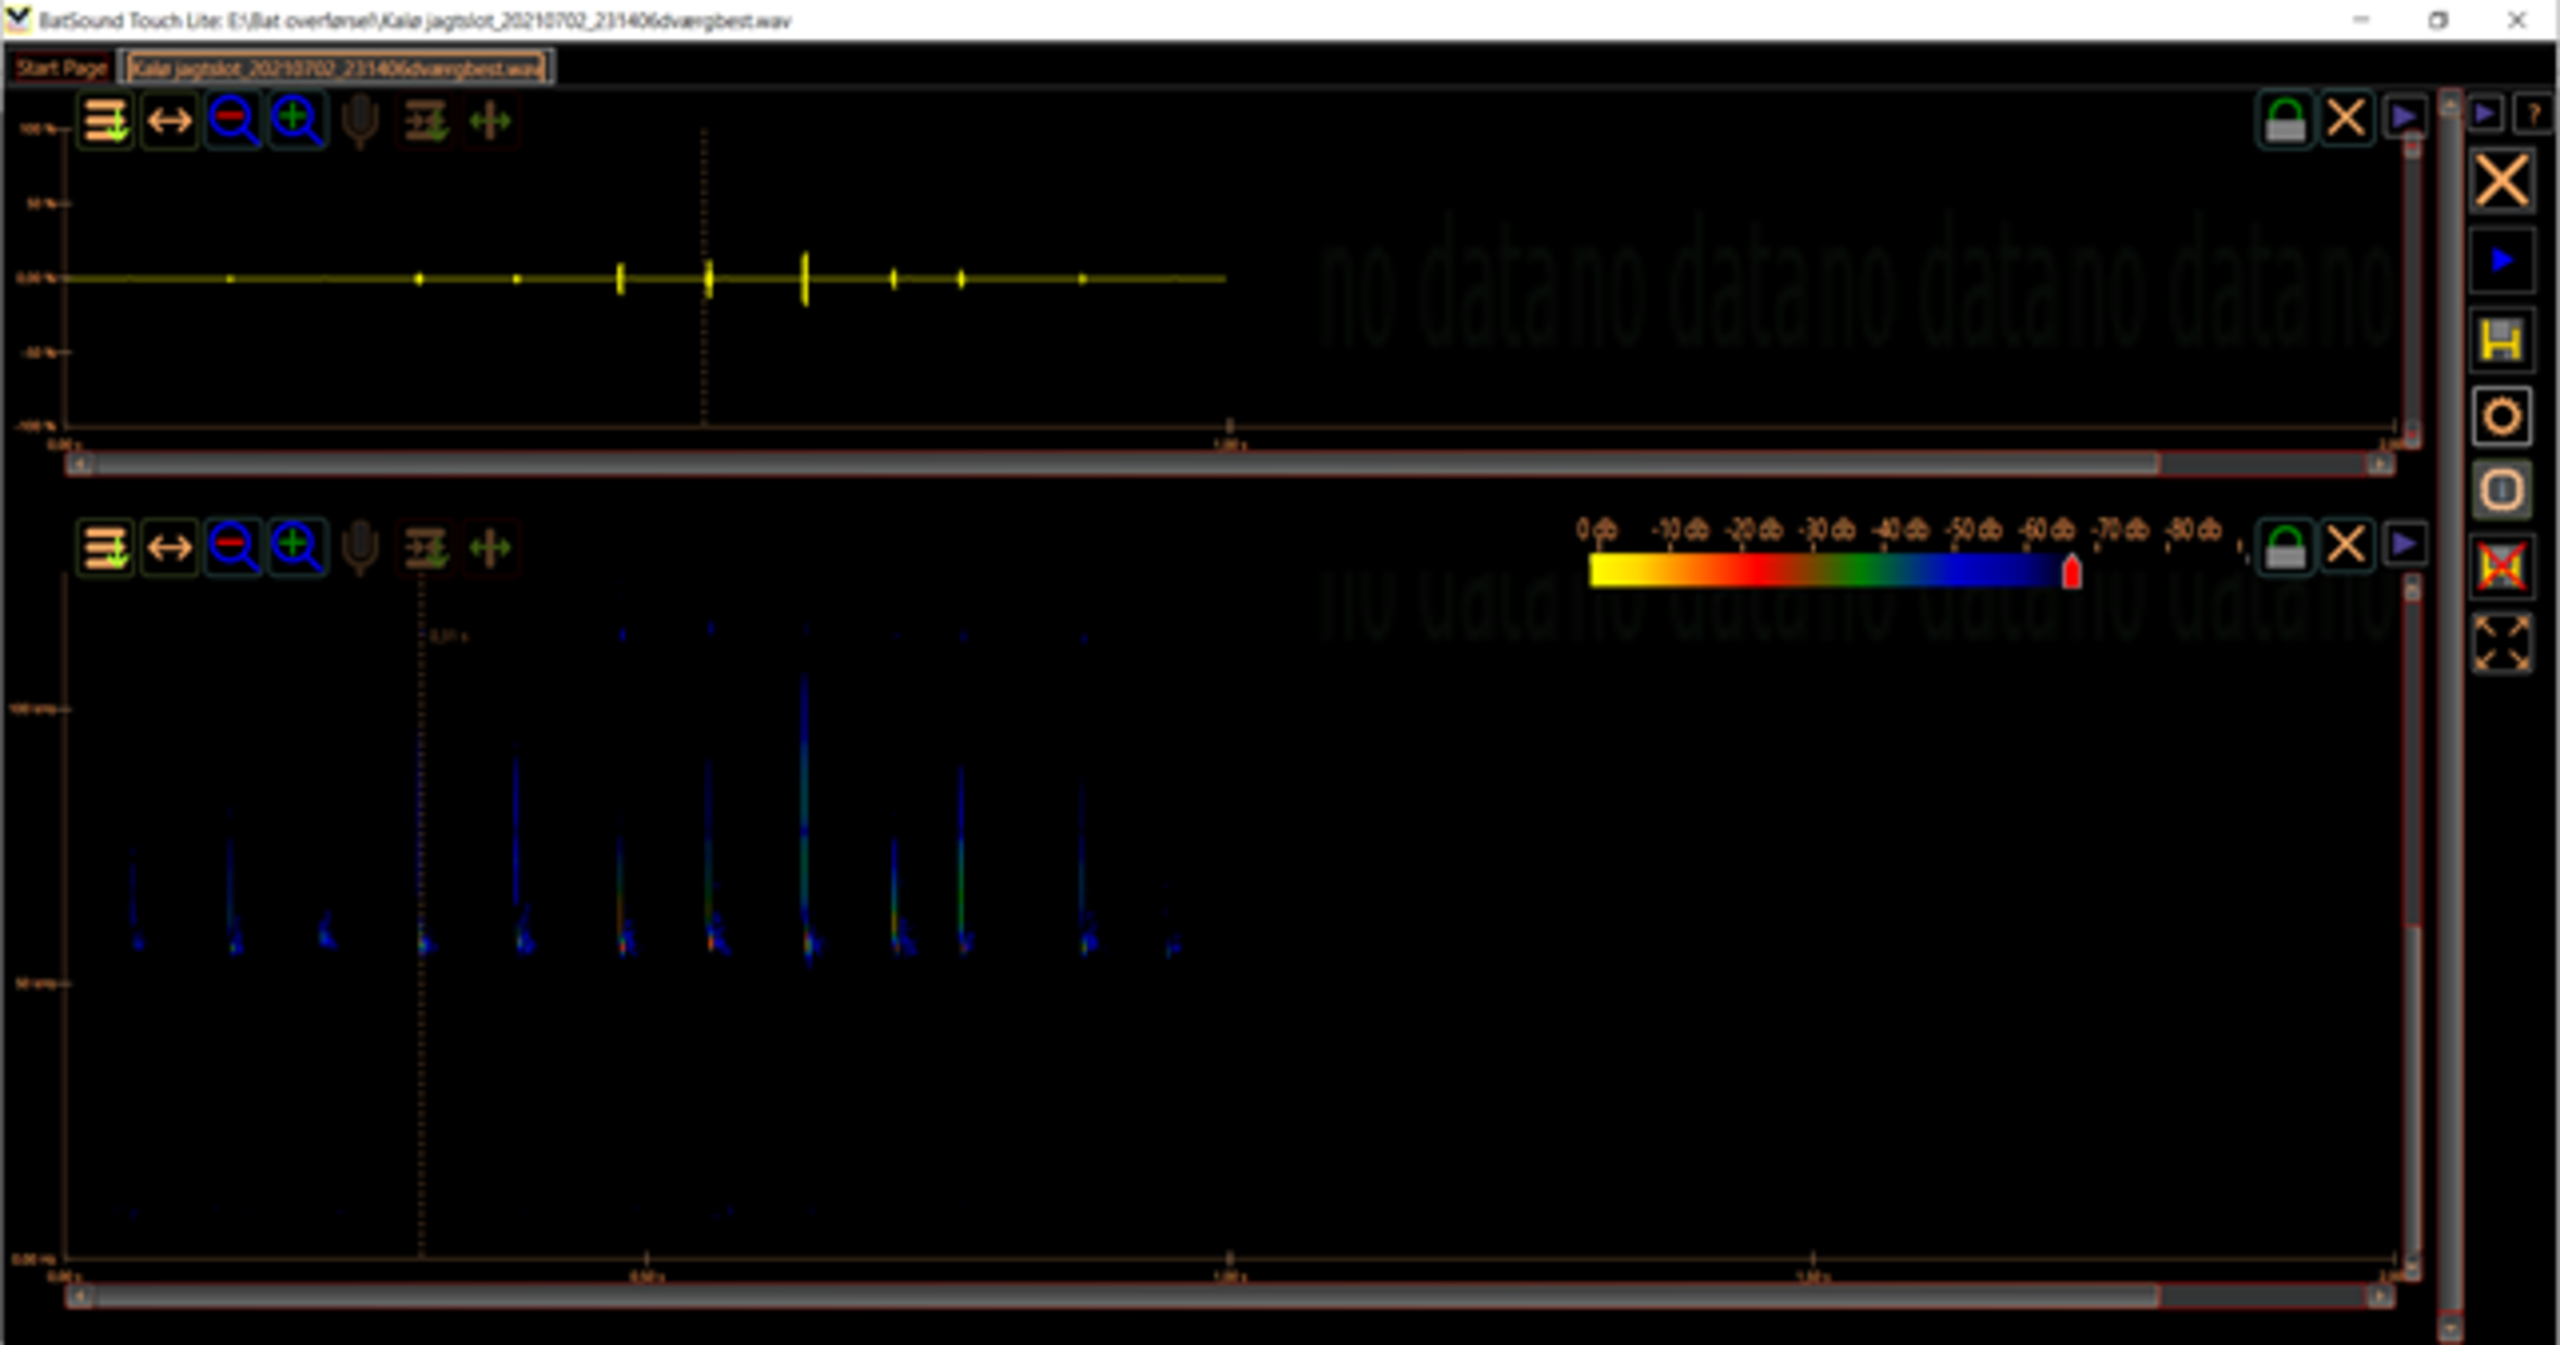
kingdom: Animalia
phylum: Chordata
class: Mammalia
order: Chiroptera
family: Vespertilionidae
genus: Pipistrellus
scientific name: Pipistrellus pygmaeus
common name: Dværgflagermus
